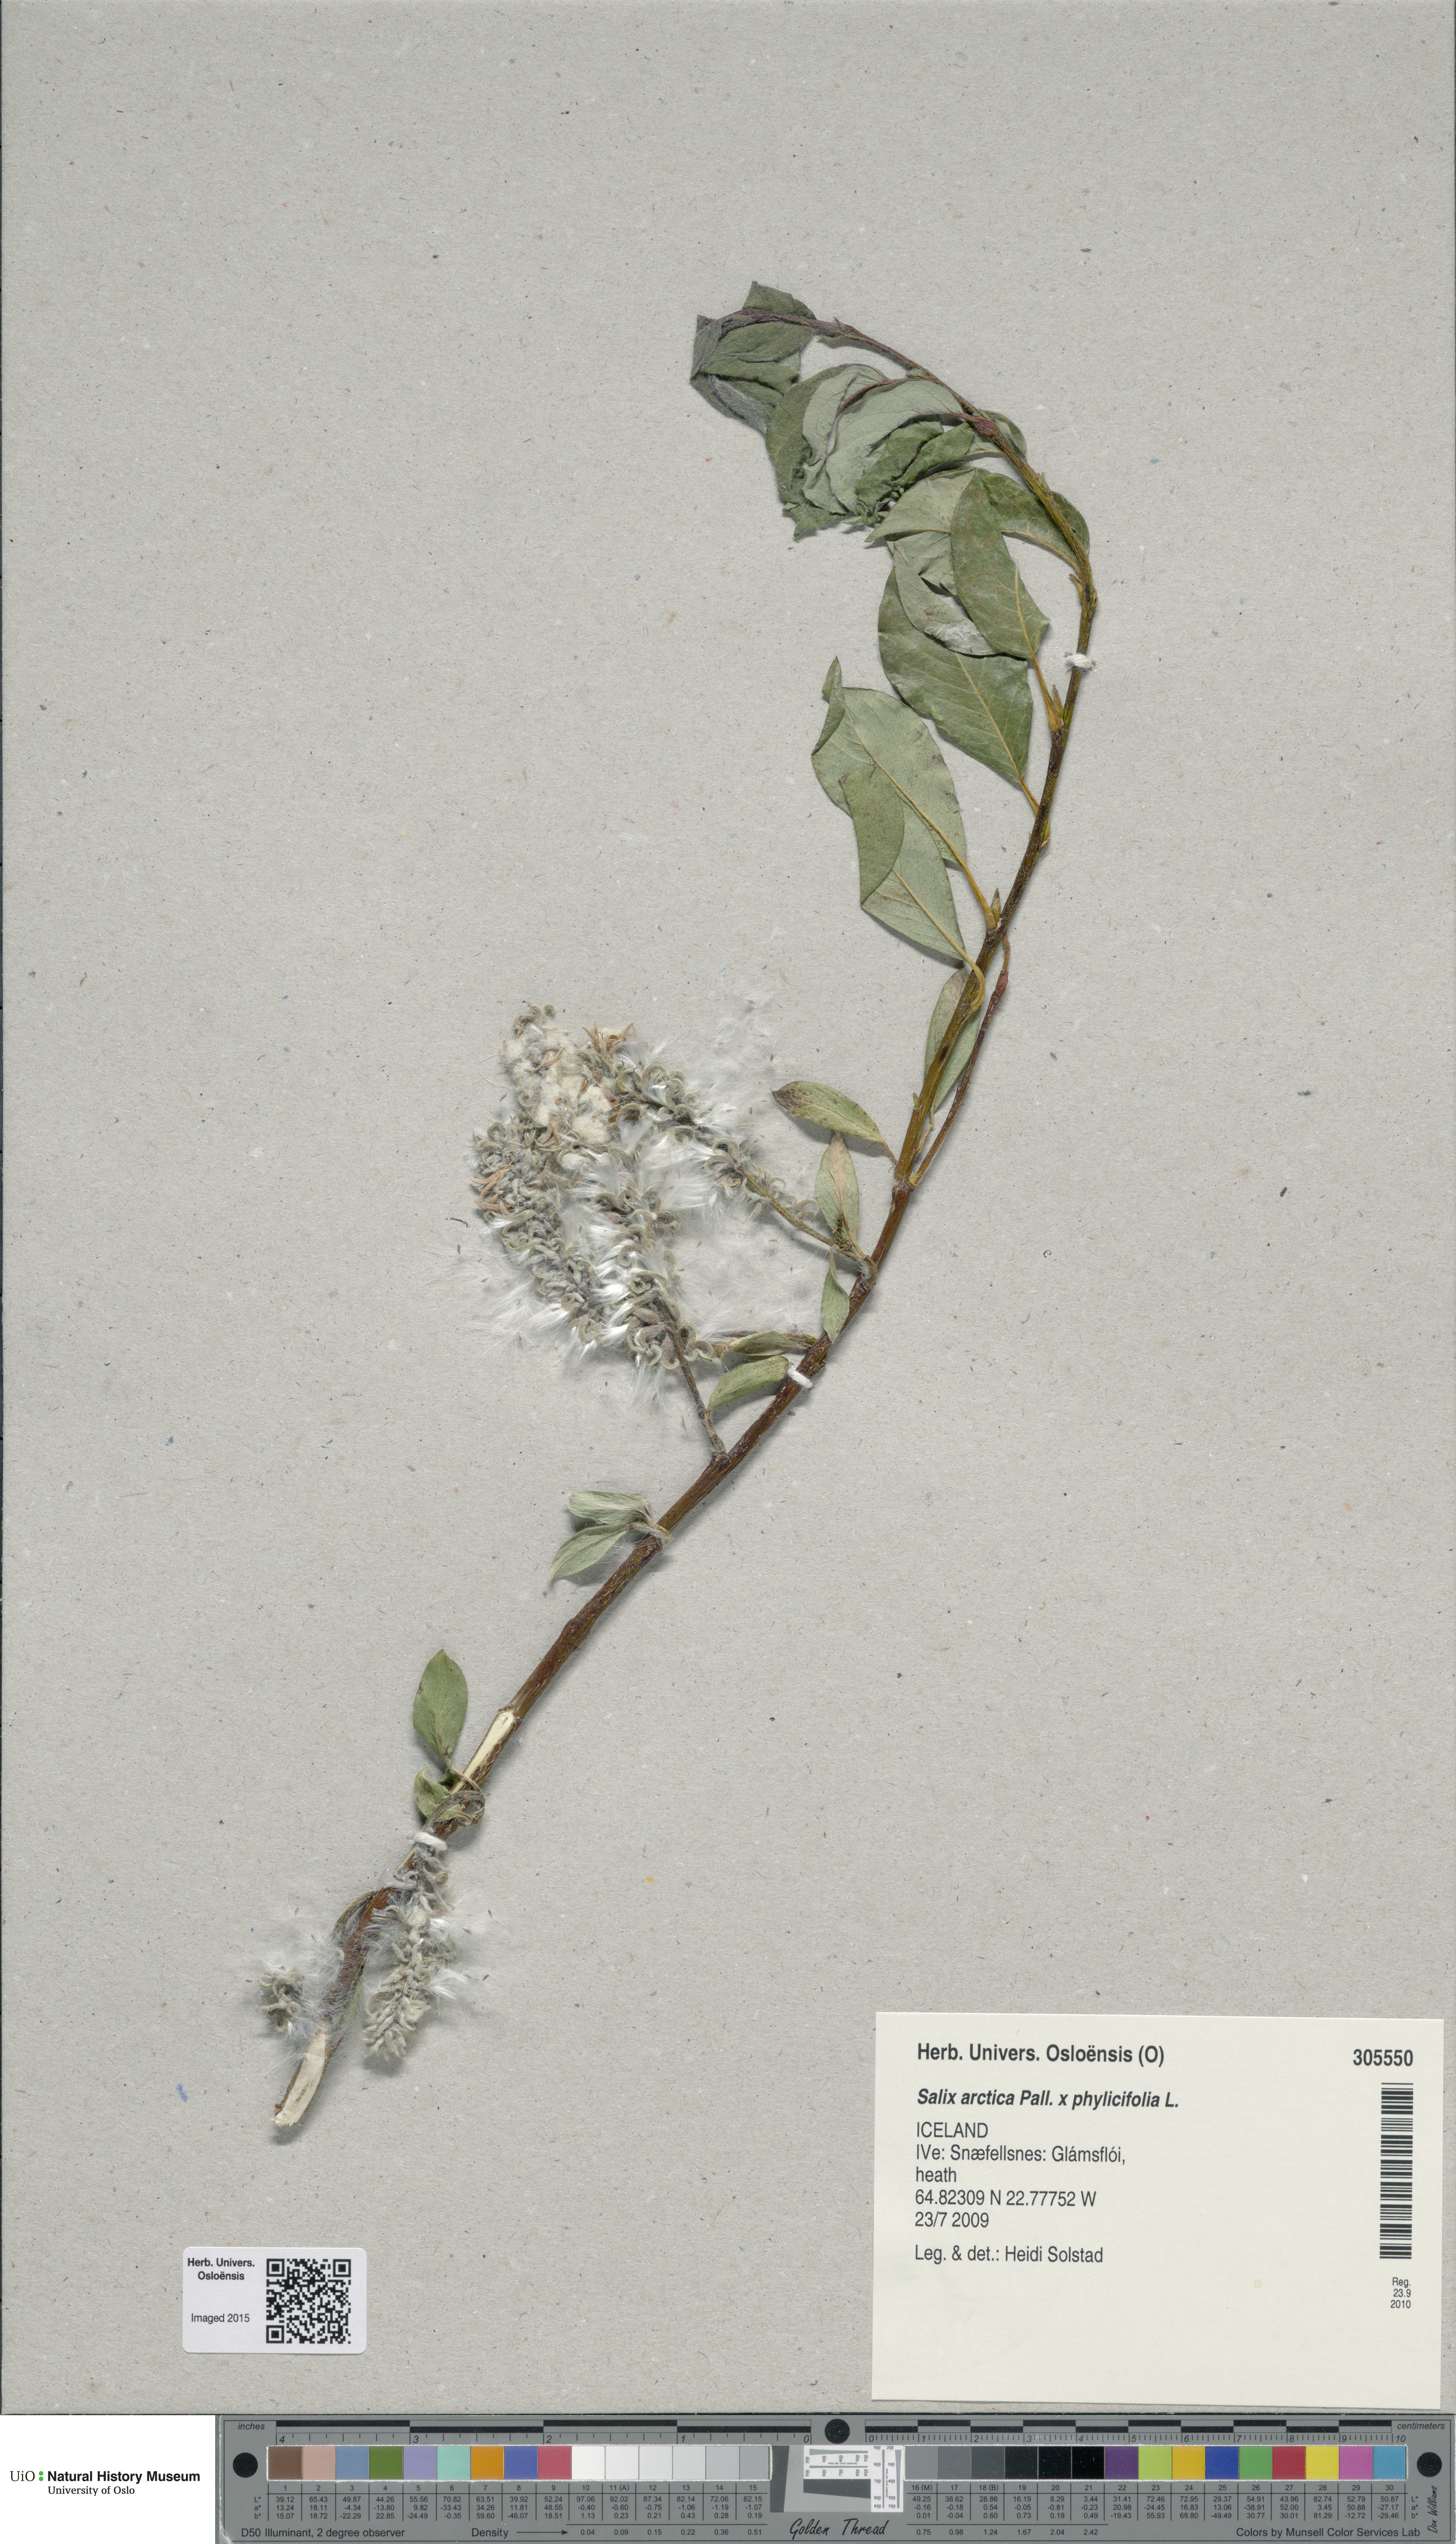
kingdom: Plantae
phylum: Tracheophyta
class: Magnoliopsida
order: Malpighiales
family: Salicaceae
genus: Salix
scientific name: Salix
